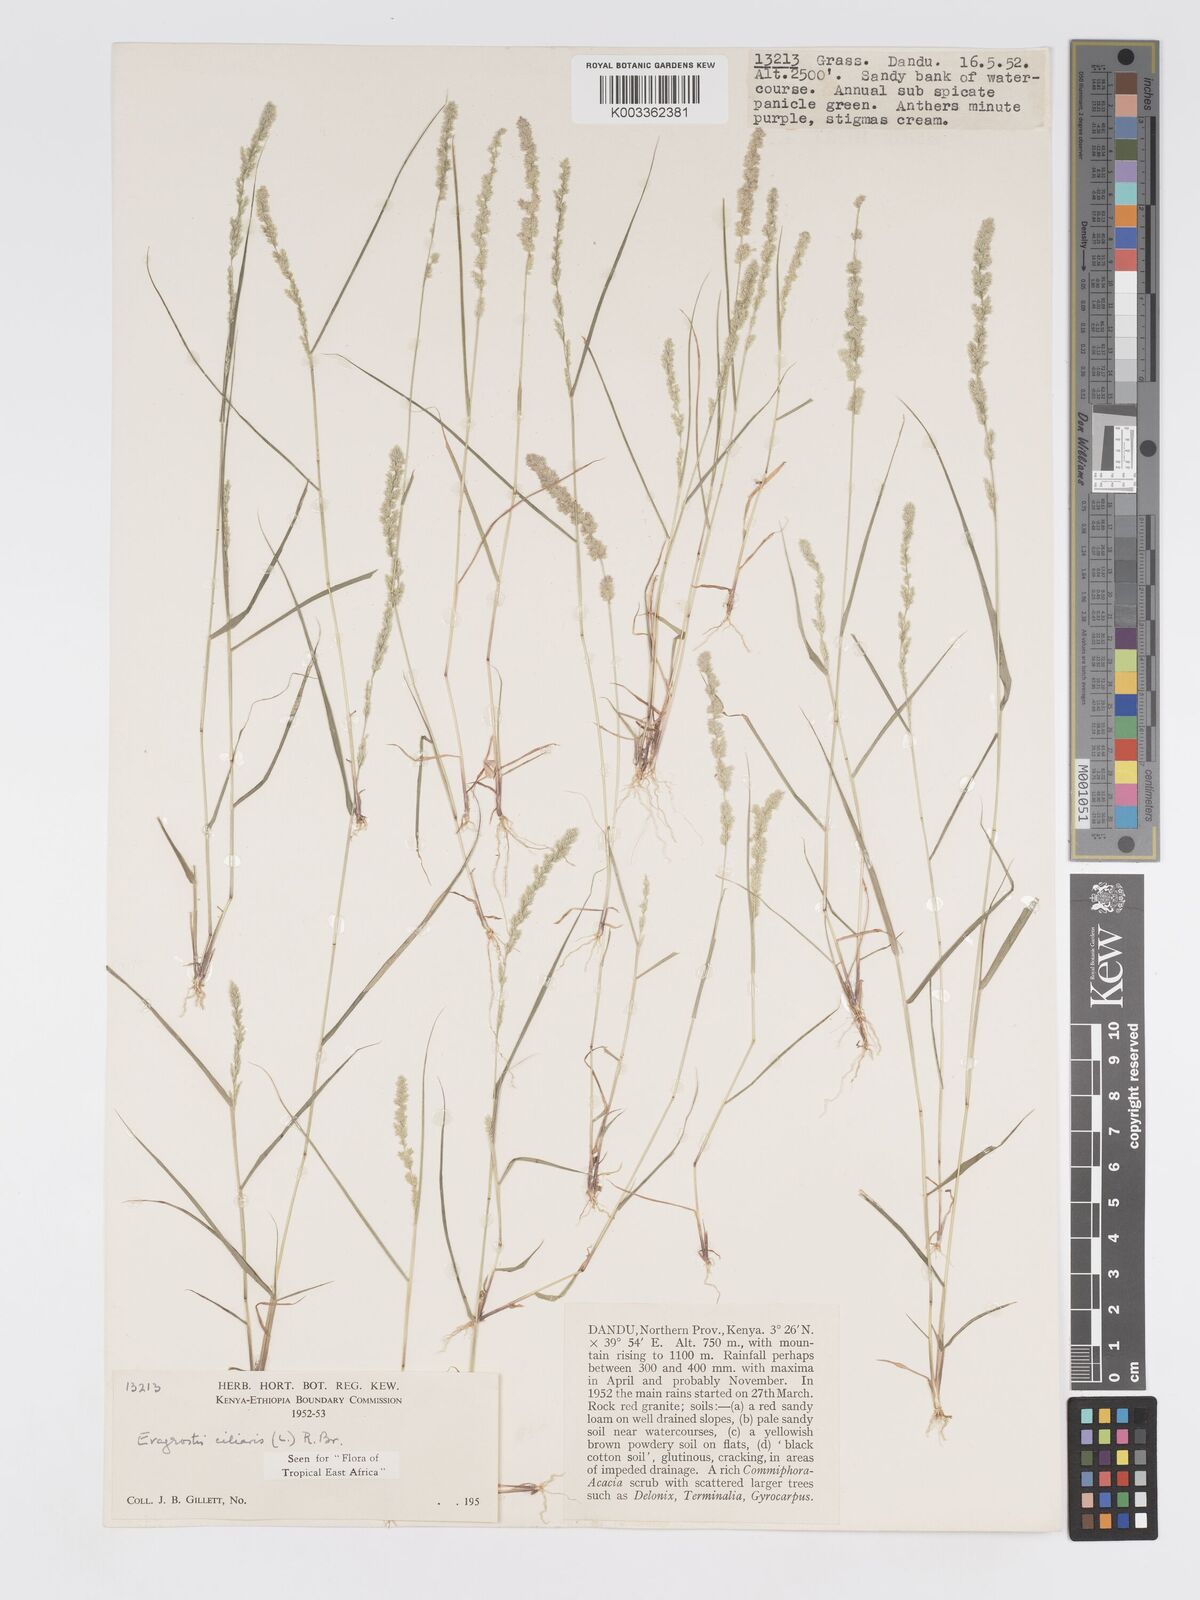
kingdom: Plantae
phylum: Tracheophyta
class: Liliopsida
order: Poales
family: Poaceae
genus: Eragrostis
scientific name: Eragrostis ciliaris
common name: Gophertail lovegrass
